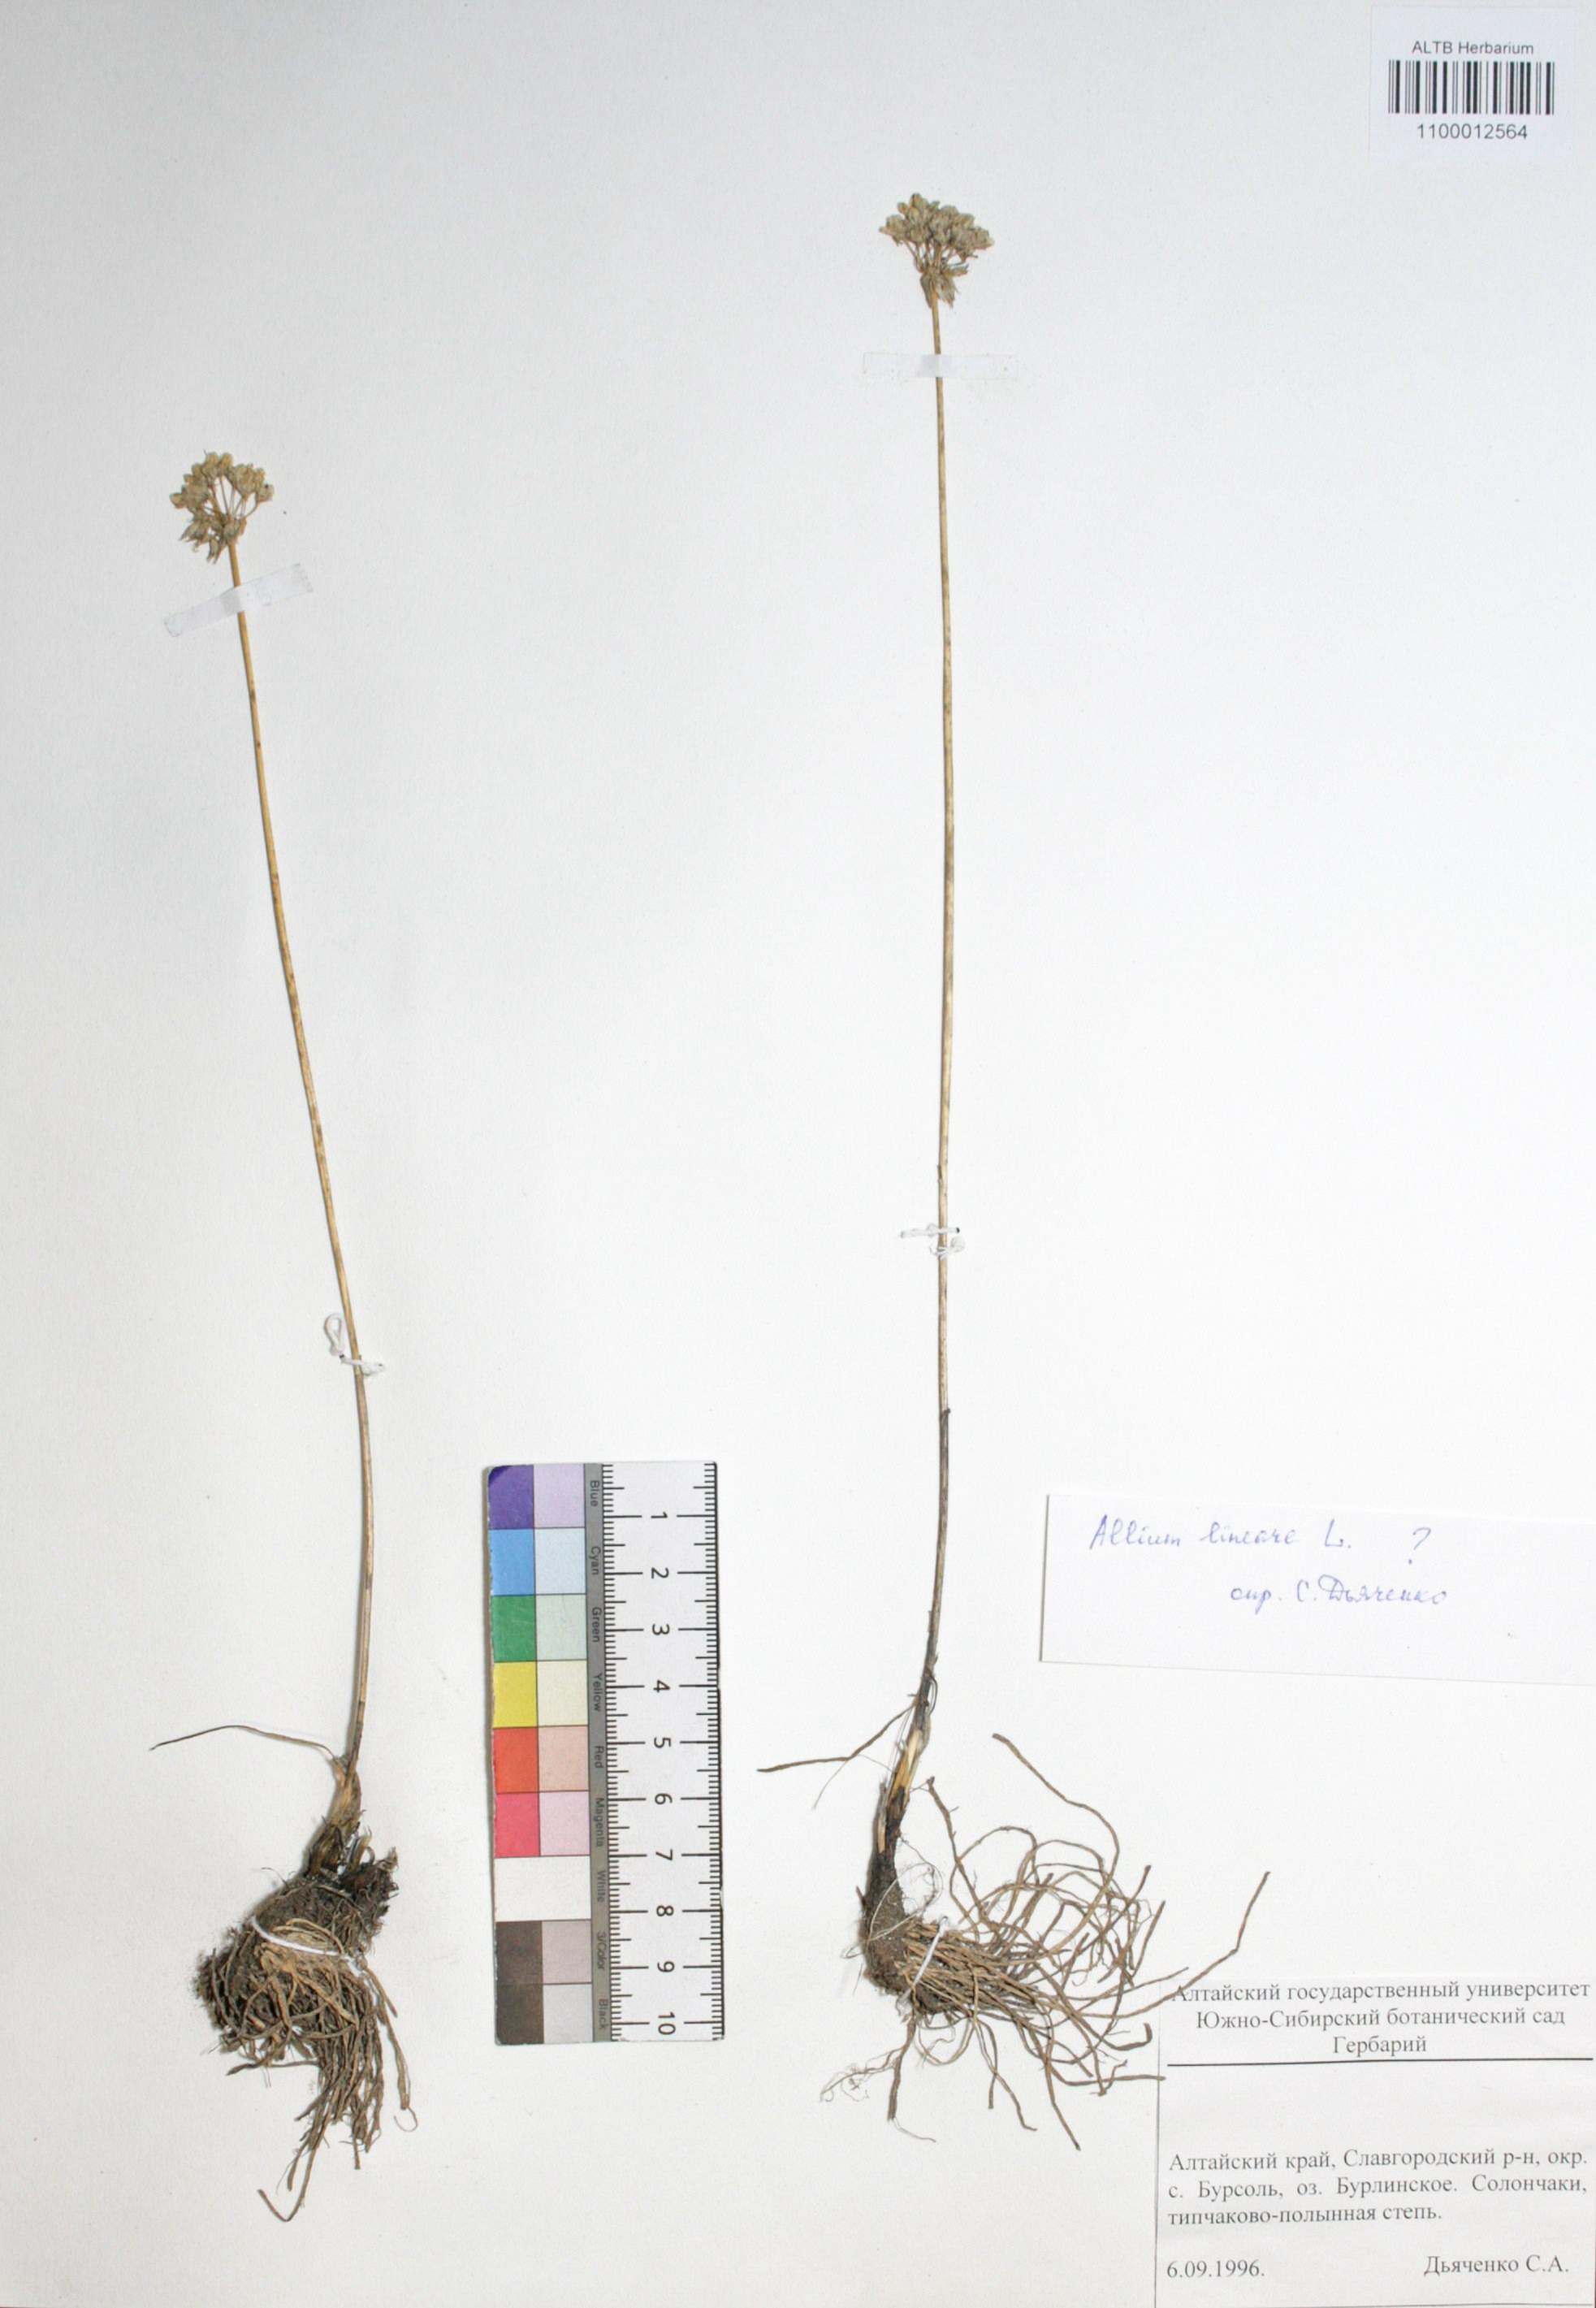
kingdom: Plantae
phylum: Tracheophyta
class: Liliopsida
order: Asparagales
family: Amaryllidaceae
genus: Allium
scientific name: Allium lineare
